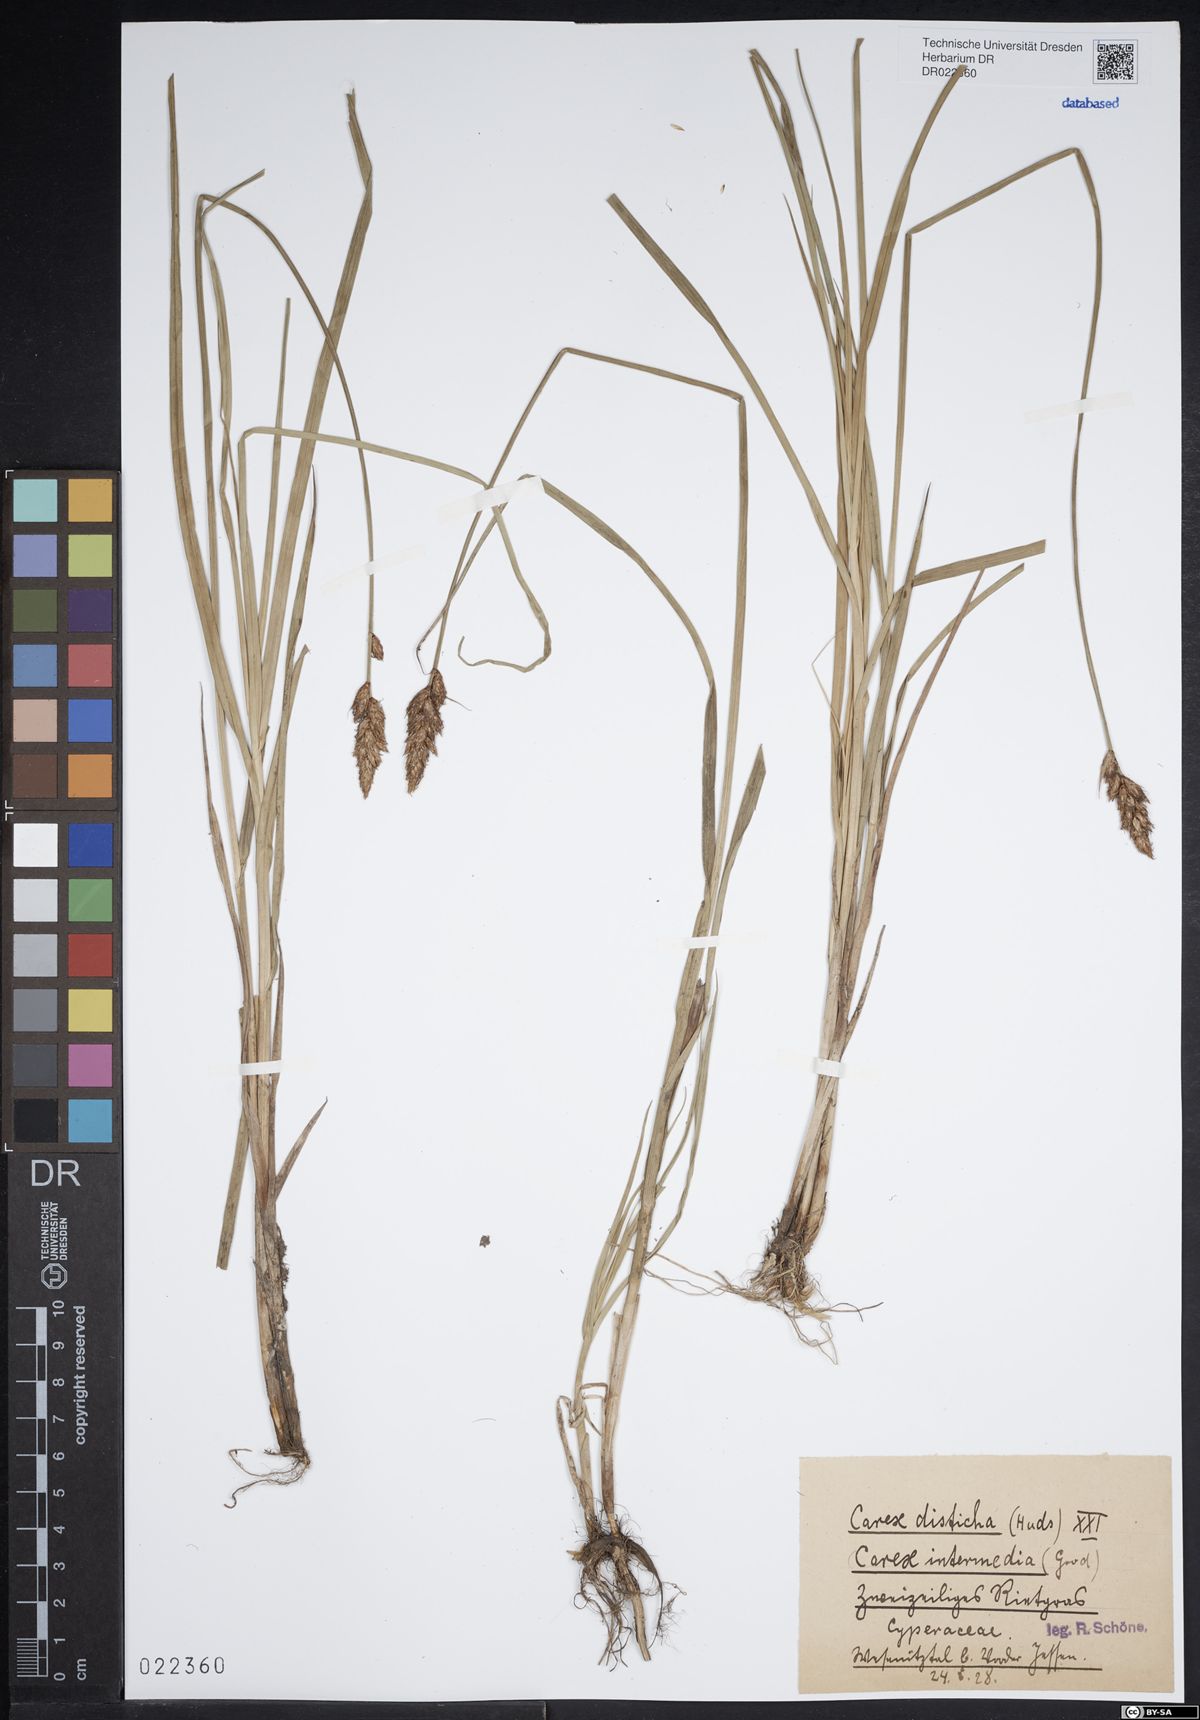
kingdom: Plantae
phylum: Tracheophyta
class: Liliopsida
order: Poales
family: Cyperaceae
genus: Carex
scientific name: Carex disticha
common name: Brown sedge
